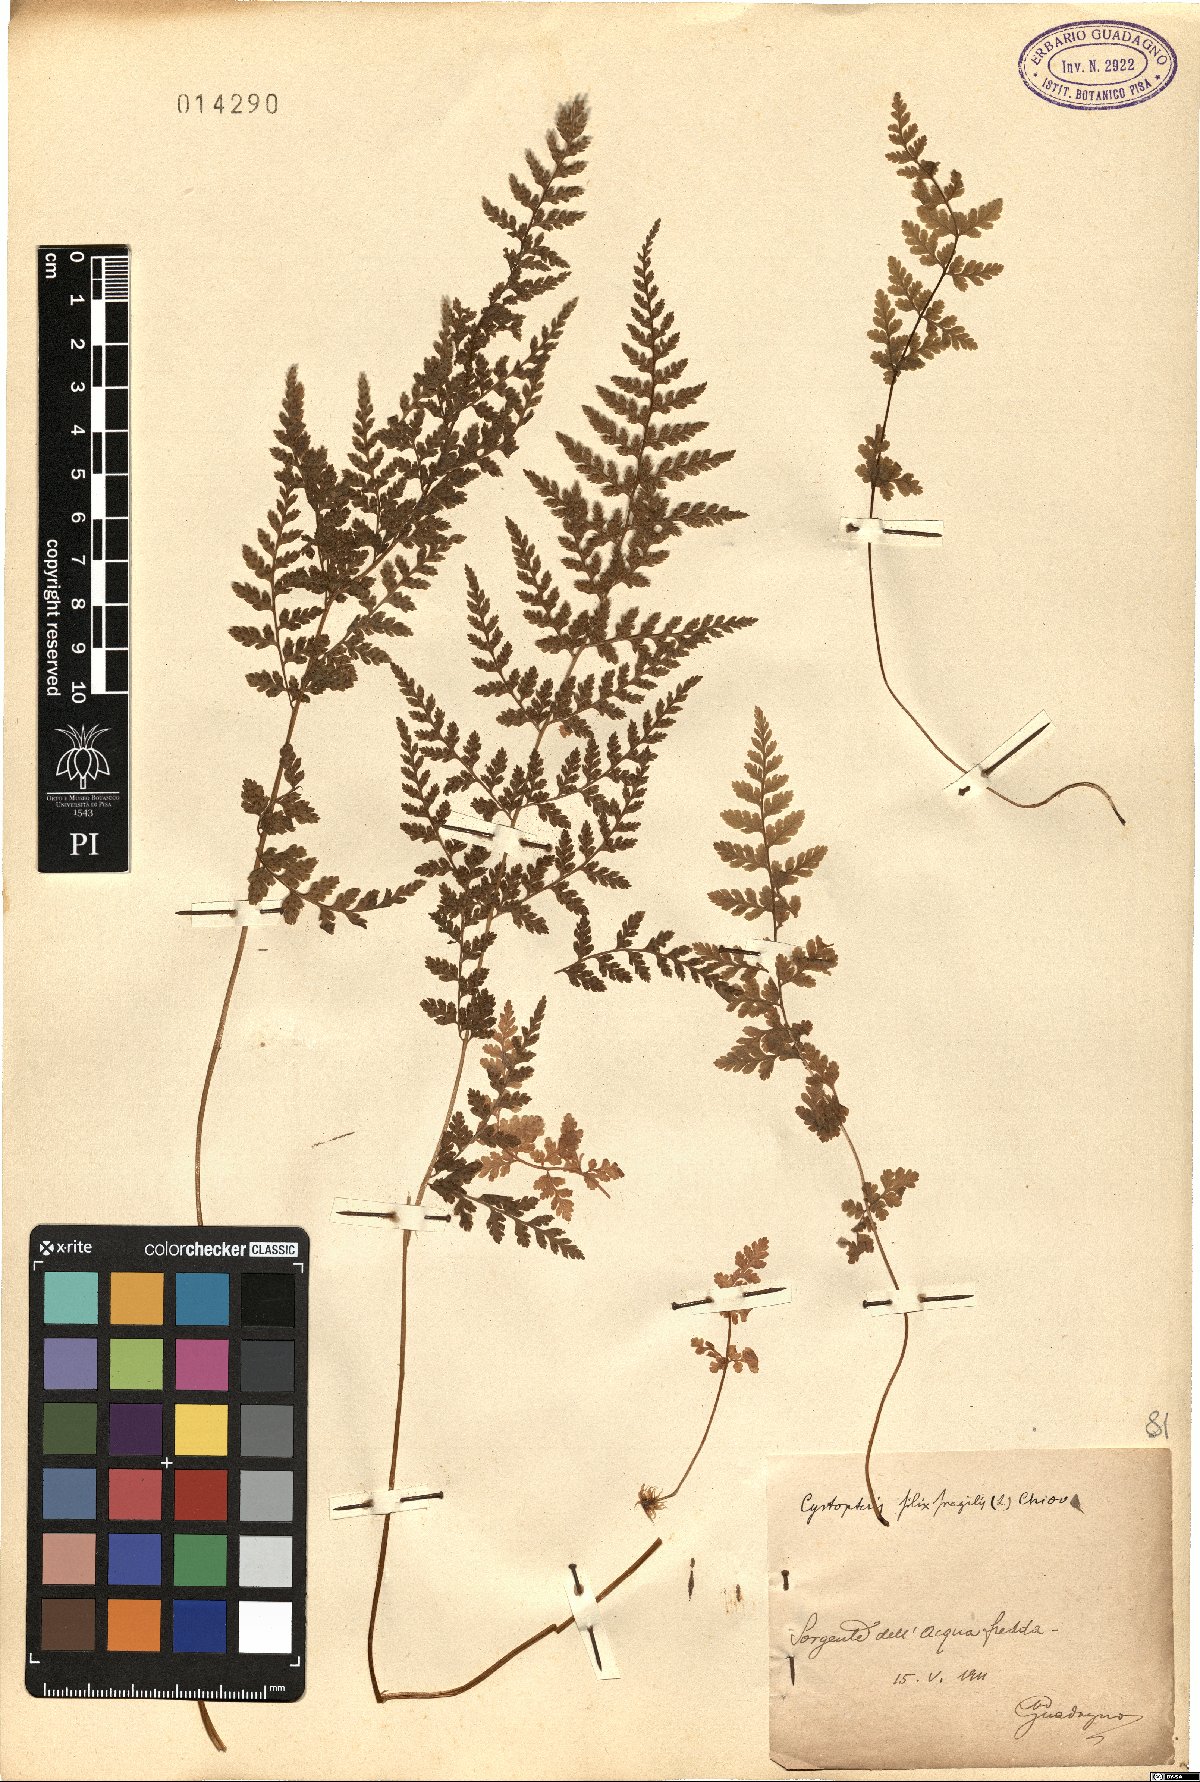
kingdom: Plantae
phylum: Tracheophyta
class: Polypodiopsida
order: Polypodiales
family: Cystopteridaceae
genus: Cystopteris
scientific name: Cystopteris dickieana
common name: Dickie's bladder-fern
